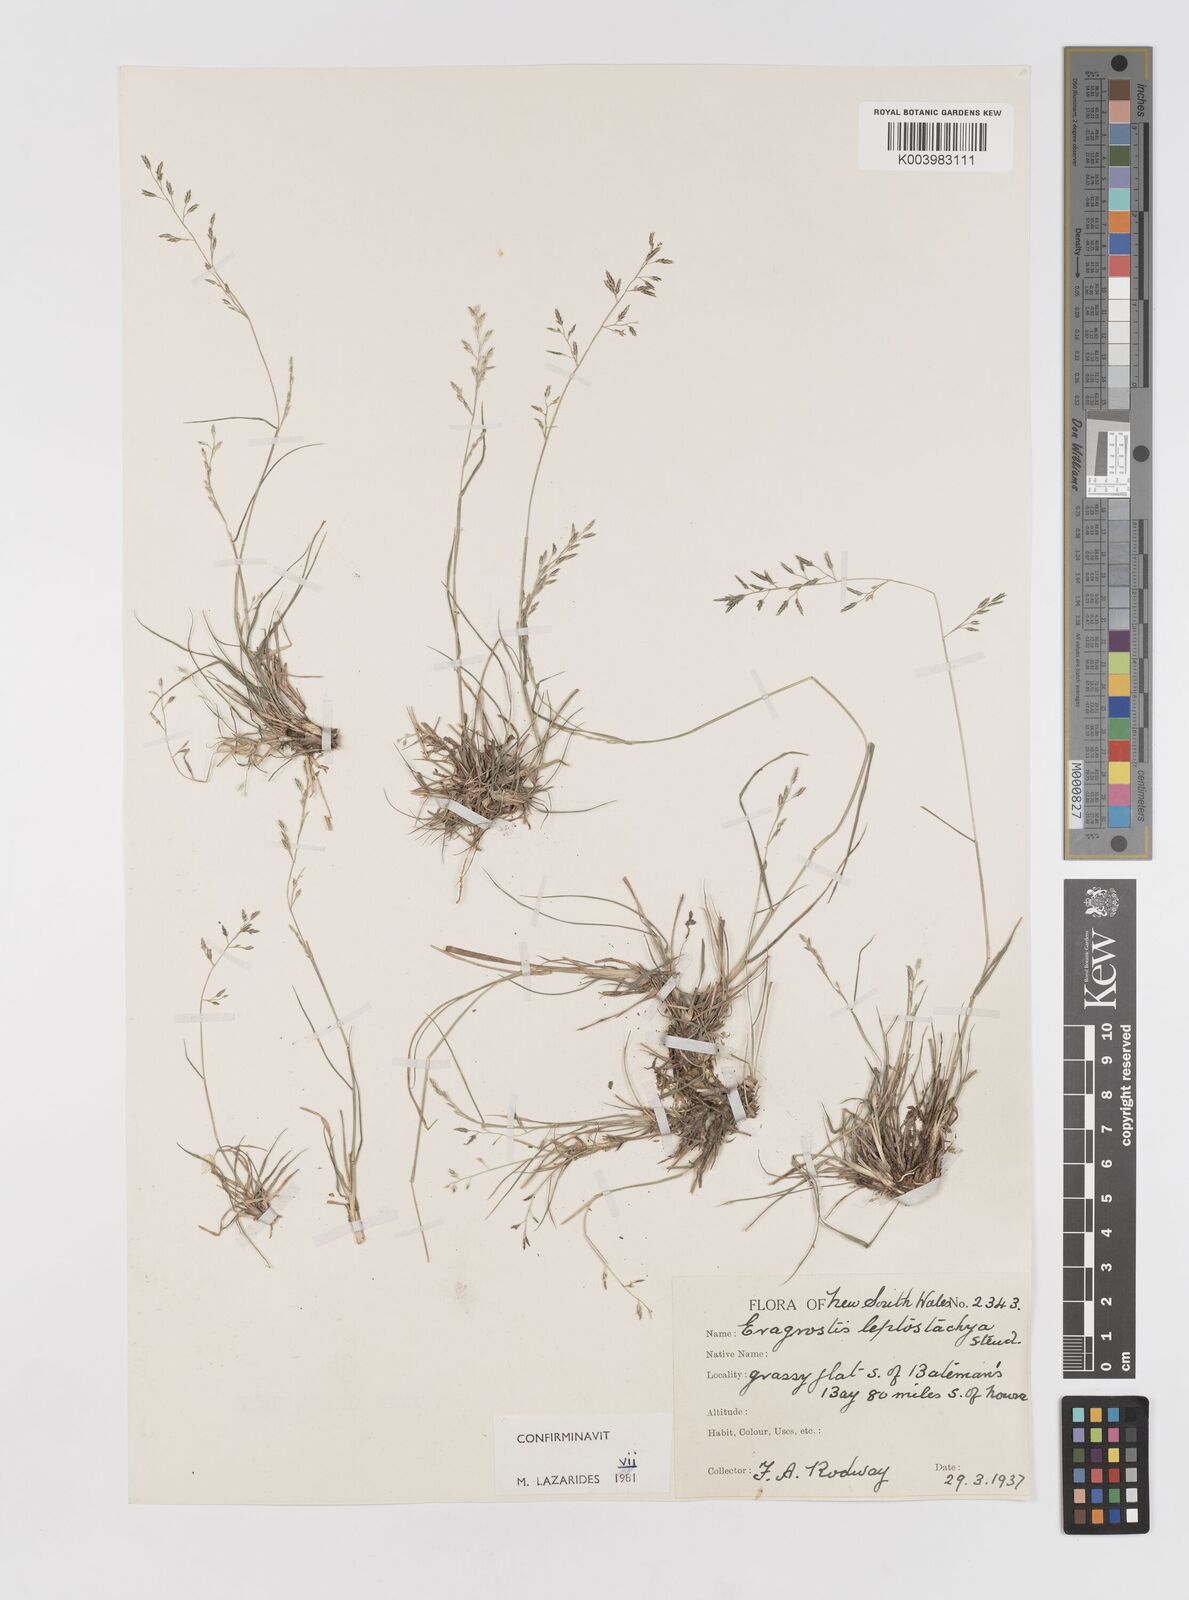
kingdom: Plantae
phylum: Tracheophyta
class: Liliopsida
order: Poales
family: Poaceae
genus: Eragrostis
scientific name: Eragrostis leptostachya
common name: Australian lovegrass
